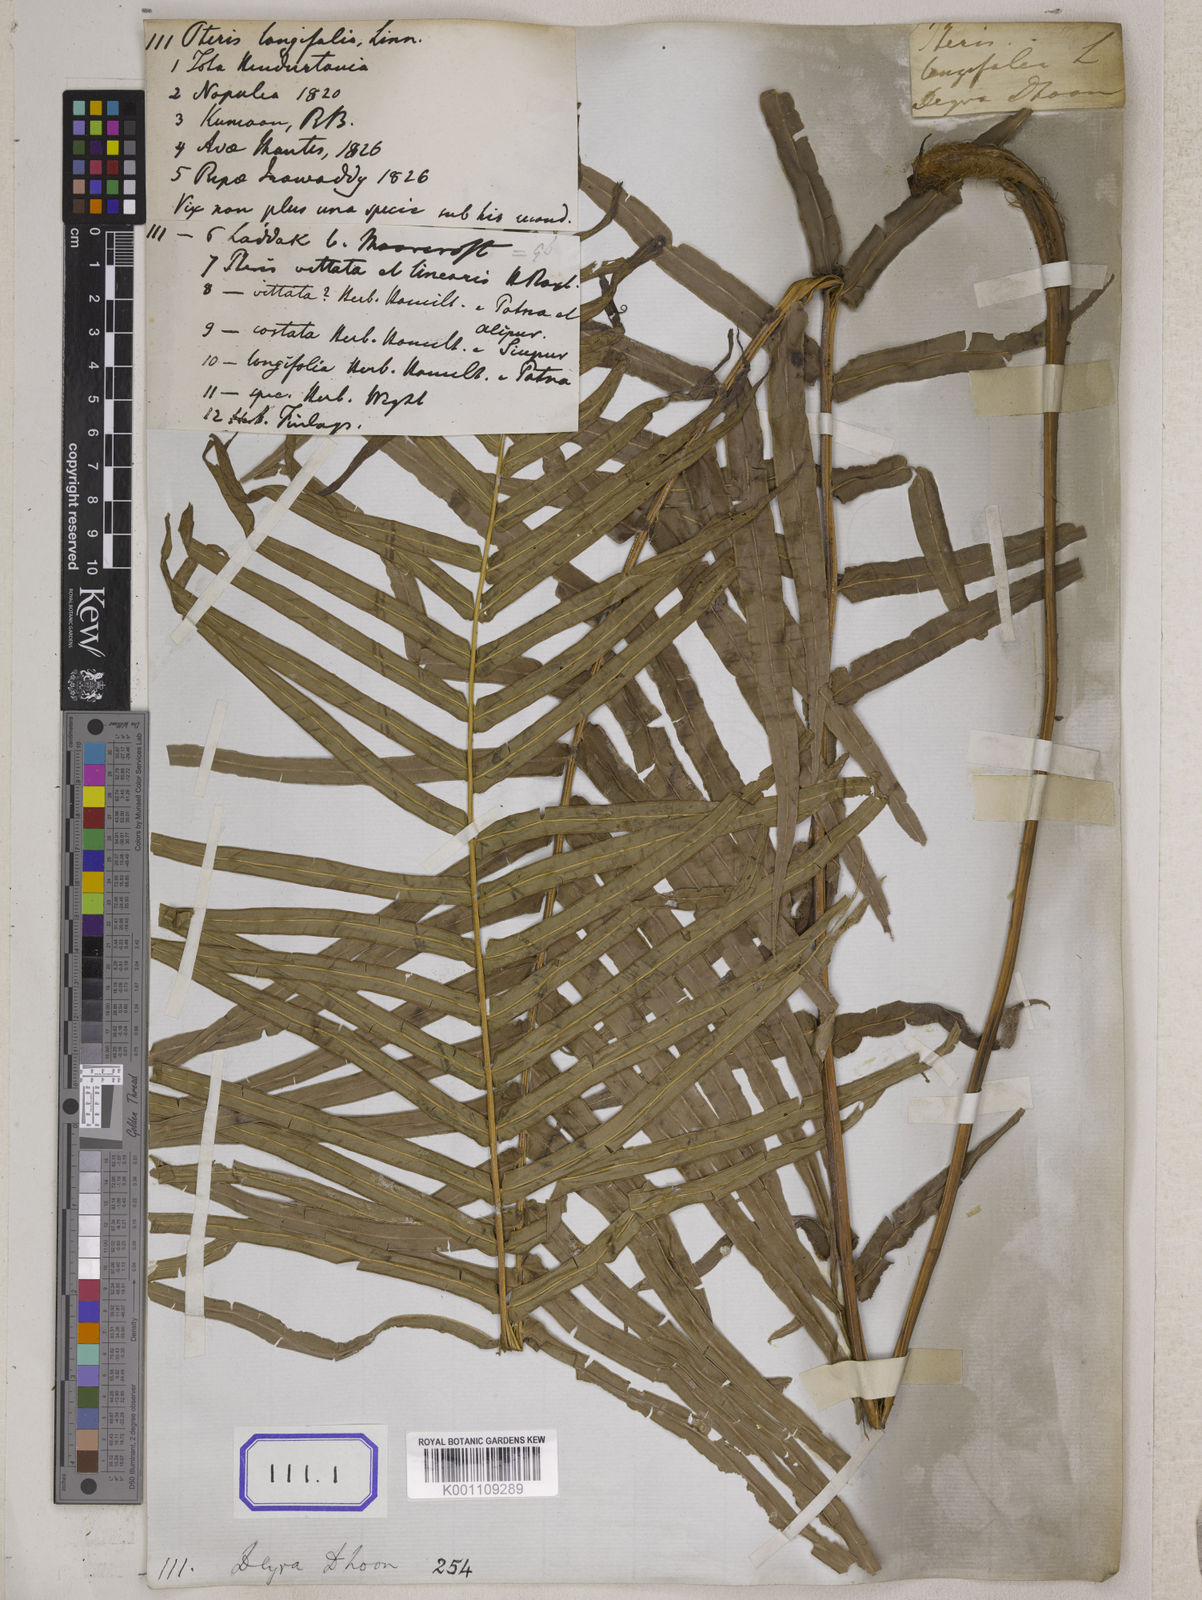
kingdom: Plantae
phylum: Tracheophyta
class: Polypodiopsida
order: Polypodiales
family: Pteridaceae
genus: Pteris
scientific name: Pteris longifolia
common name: Longleaf brake
